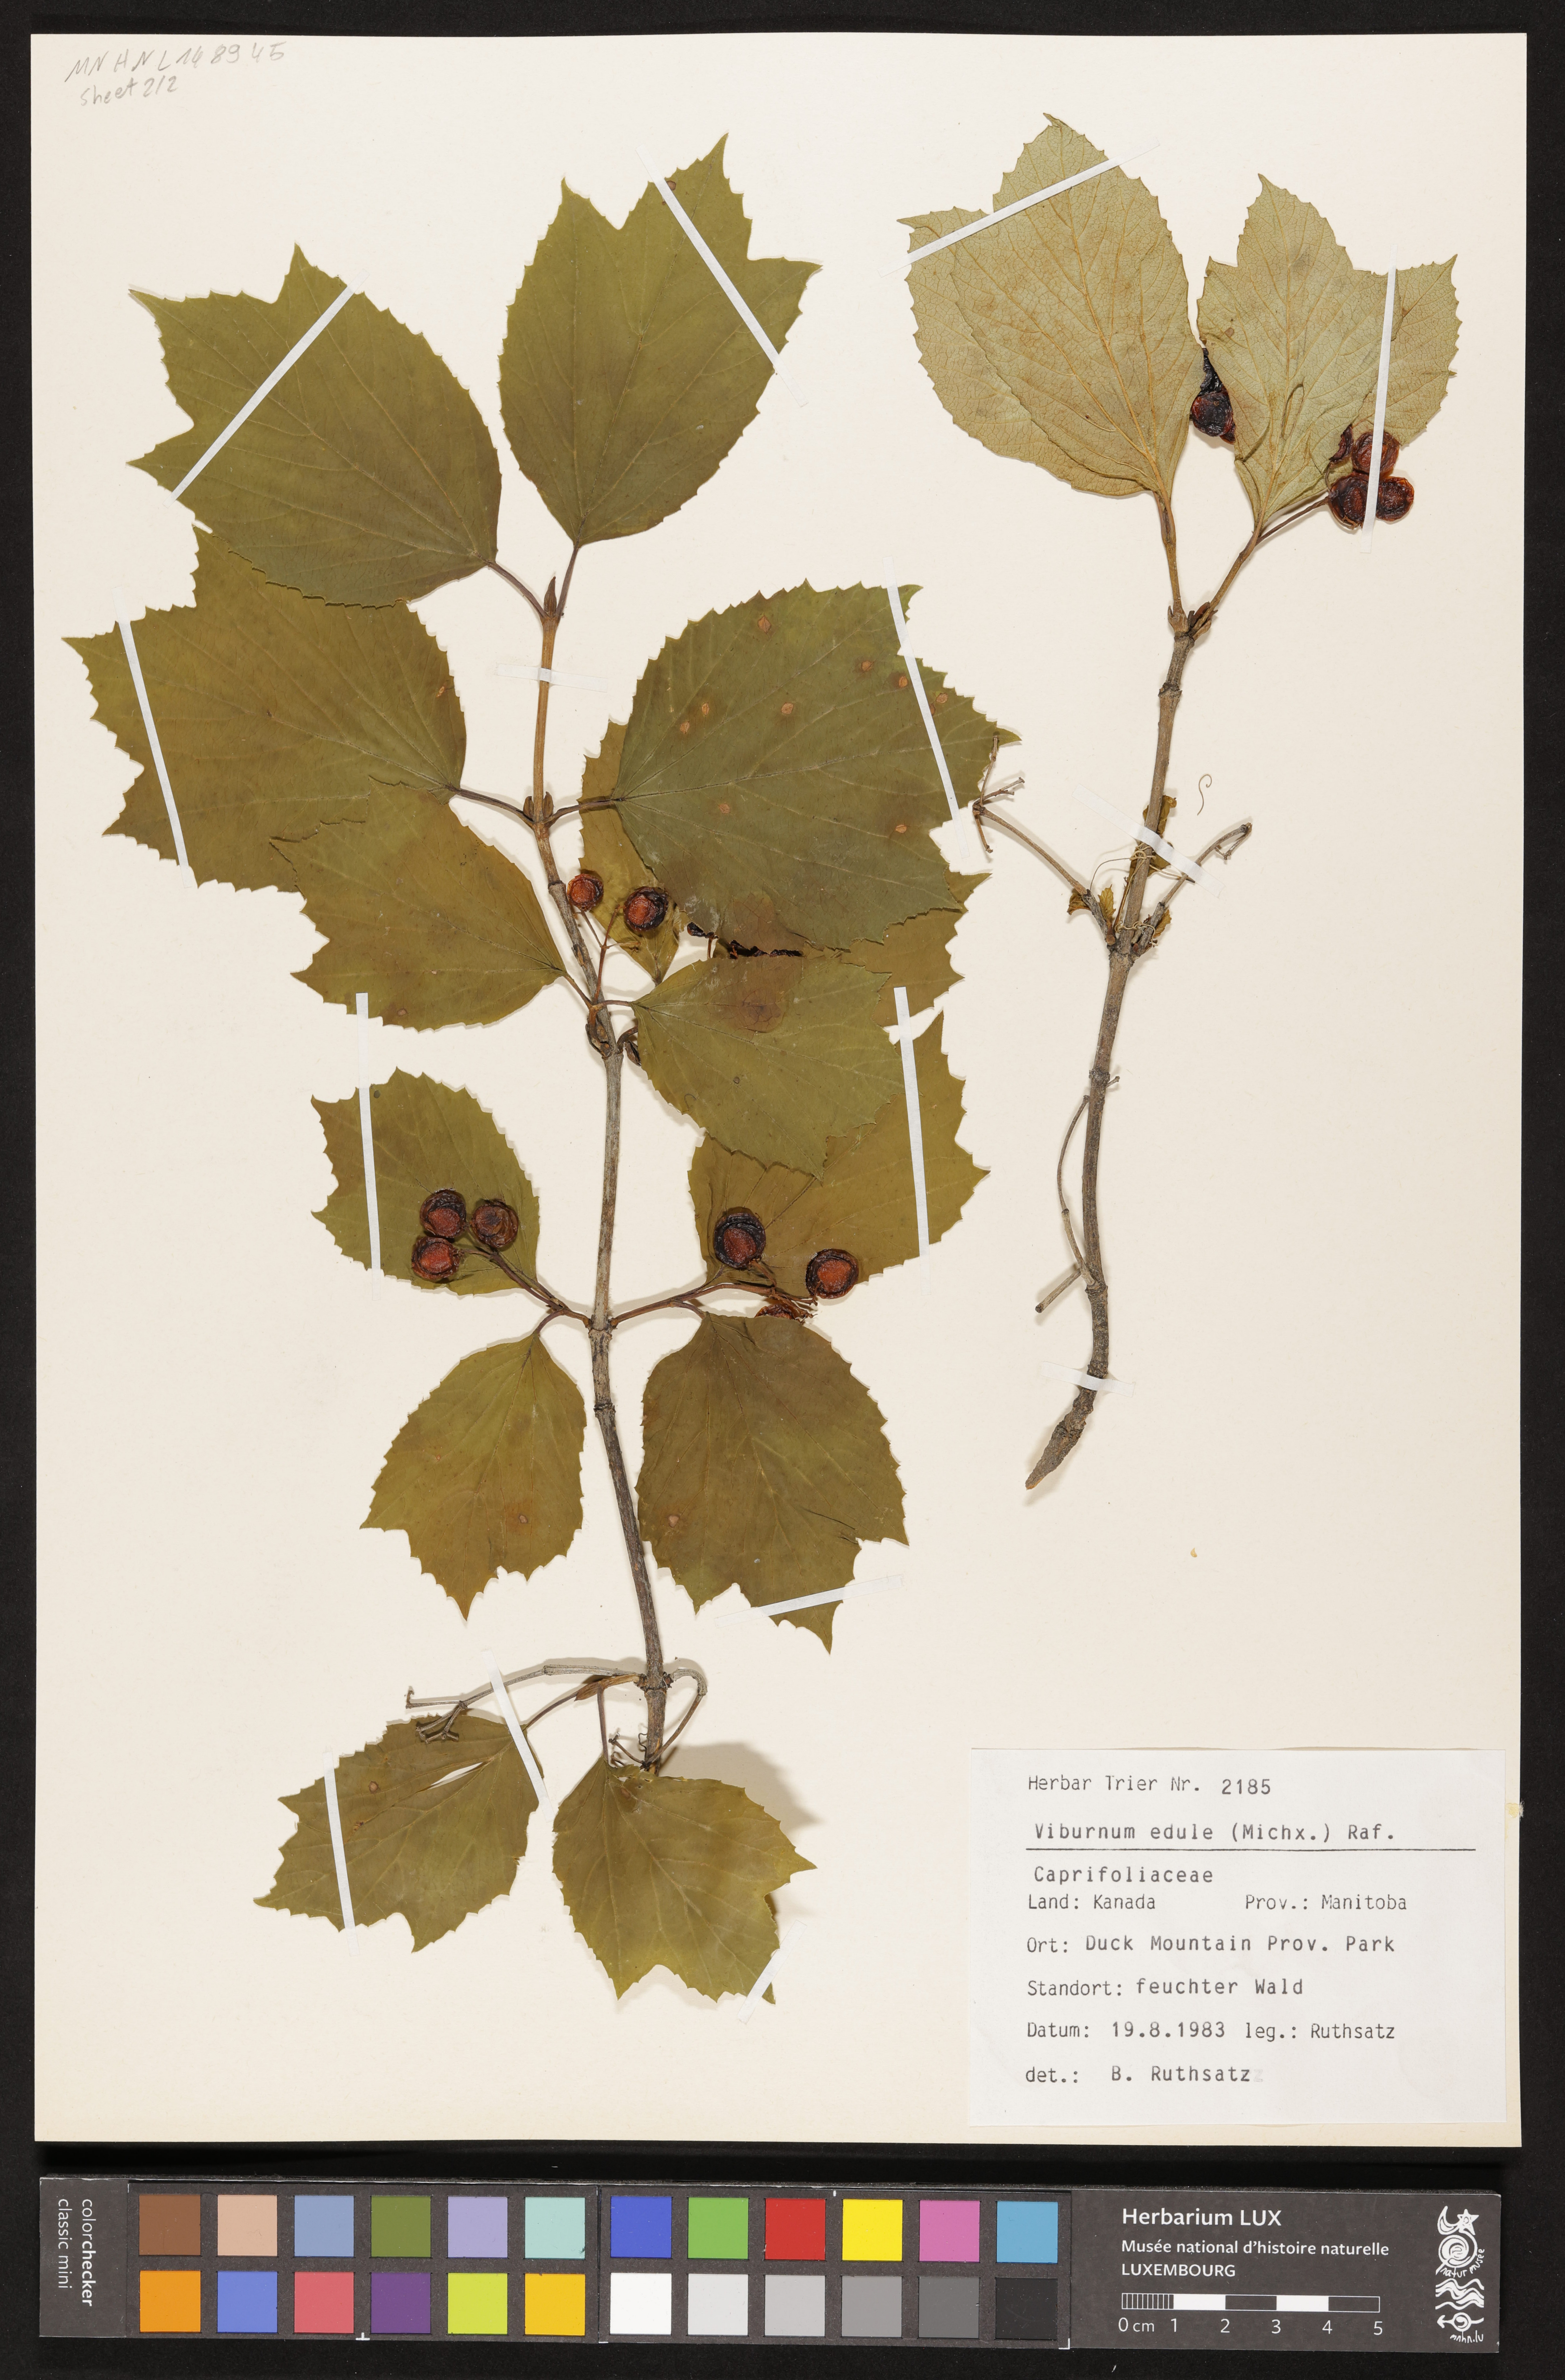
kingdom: Plantae
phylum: Tracheophyta
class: Magnoliopsida
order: Dipsacales
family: Viburnaceae
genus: Viburnum
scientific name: Viburnum edule
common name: Mooseberry
